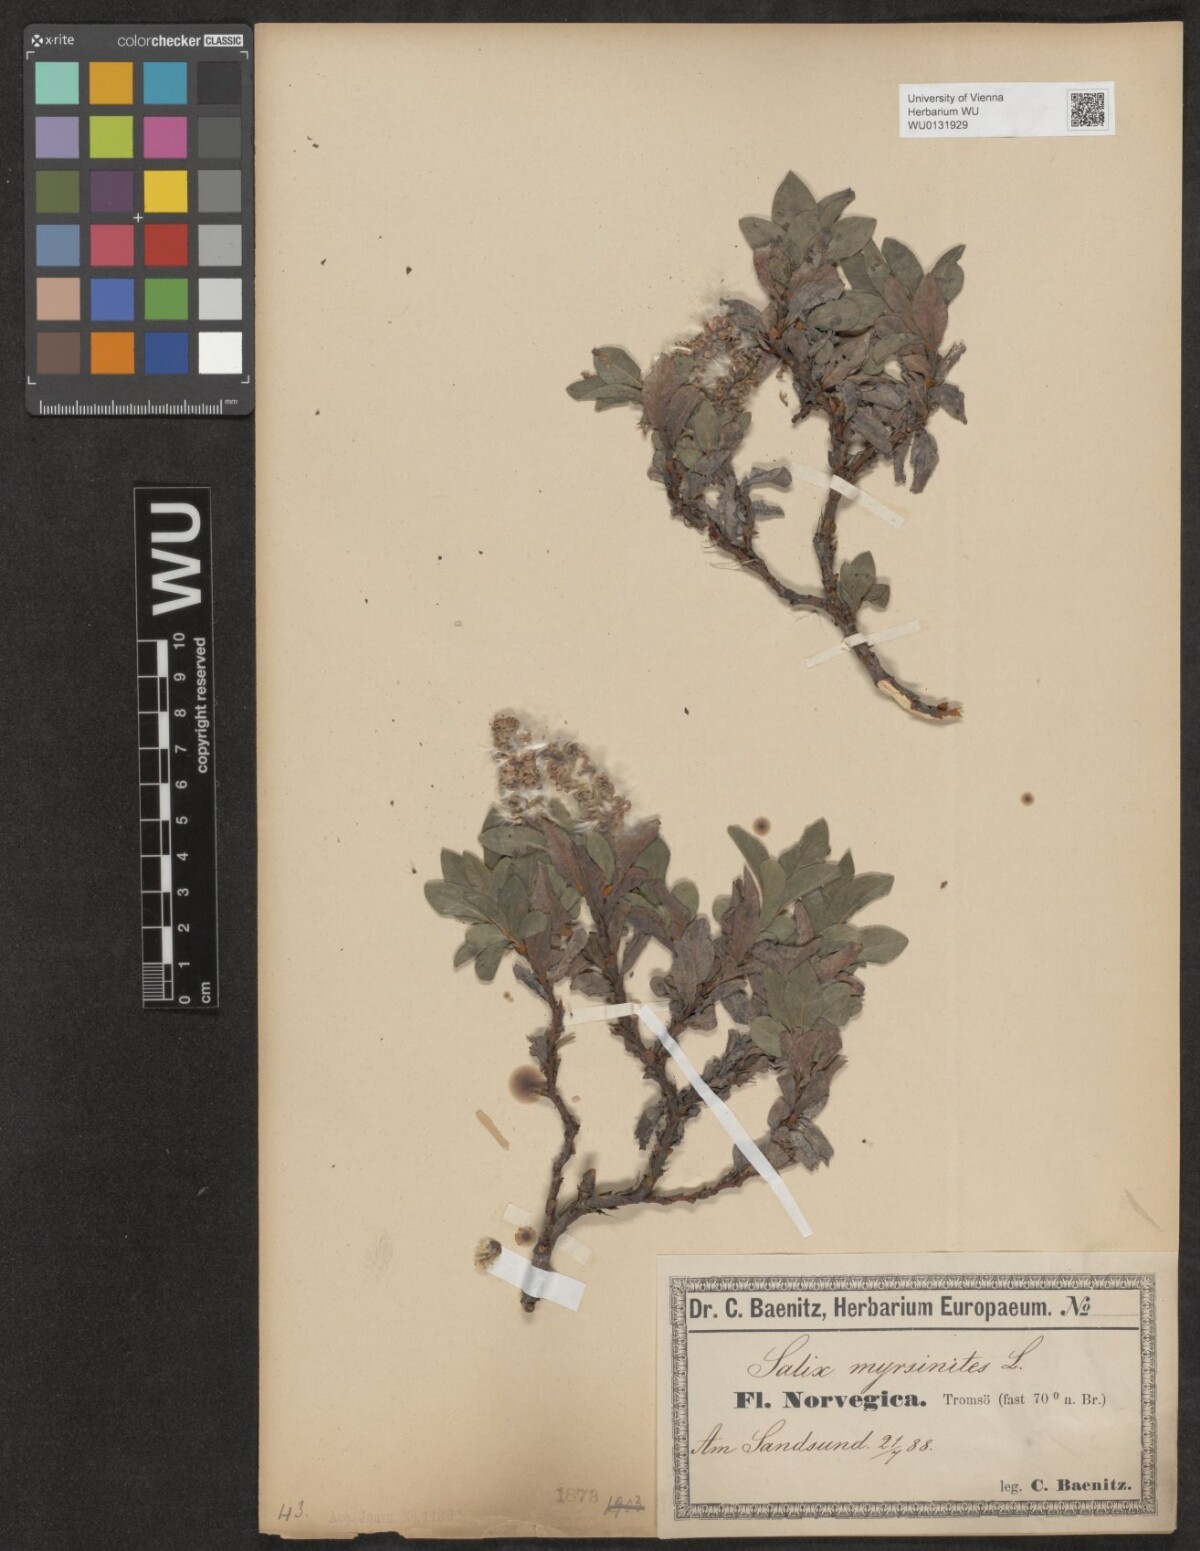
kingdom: Plantae
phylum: Tracheophyta
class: Magnoliopsida
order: Malpighiales
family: Salicaceae
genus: Salix
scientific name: Salix myrsinites
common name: Myrtle willow
